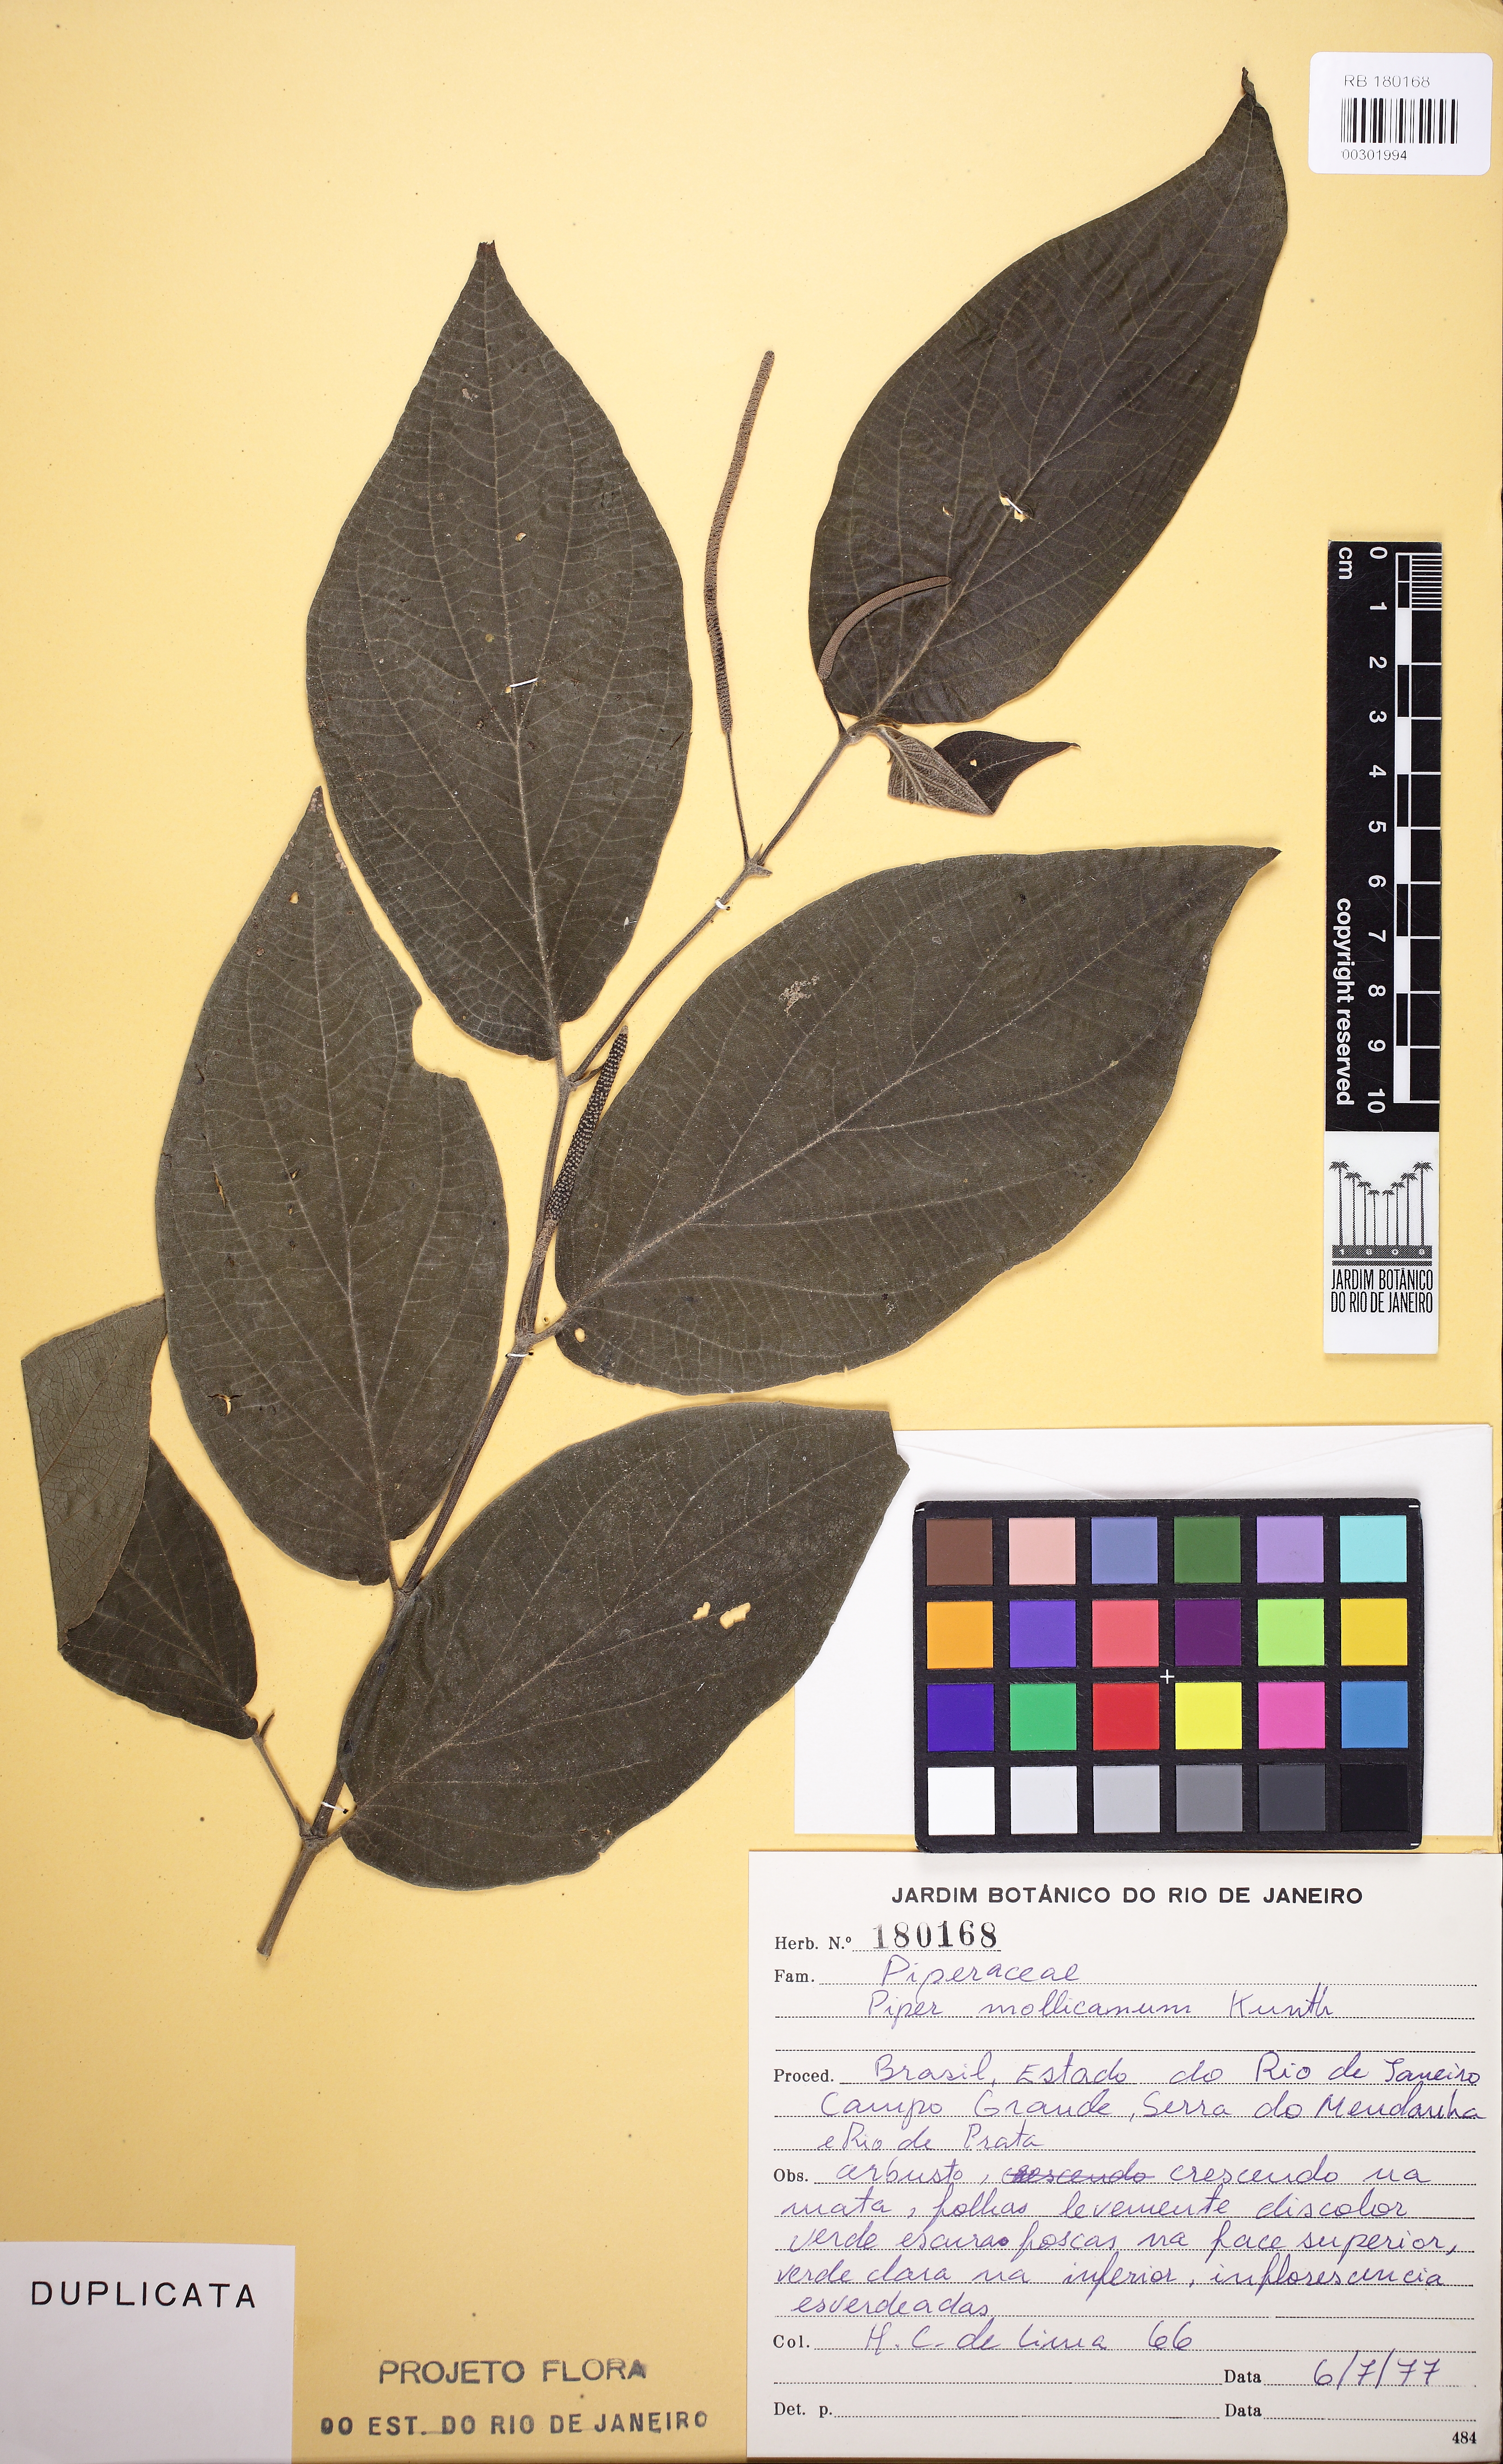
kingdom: Plantae
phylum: Tracheophyta
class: Magnoliopsida
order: Piperales
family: Piperaceae
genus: Piper
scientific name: Piper mollicomum
